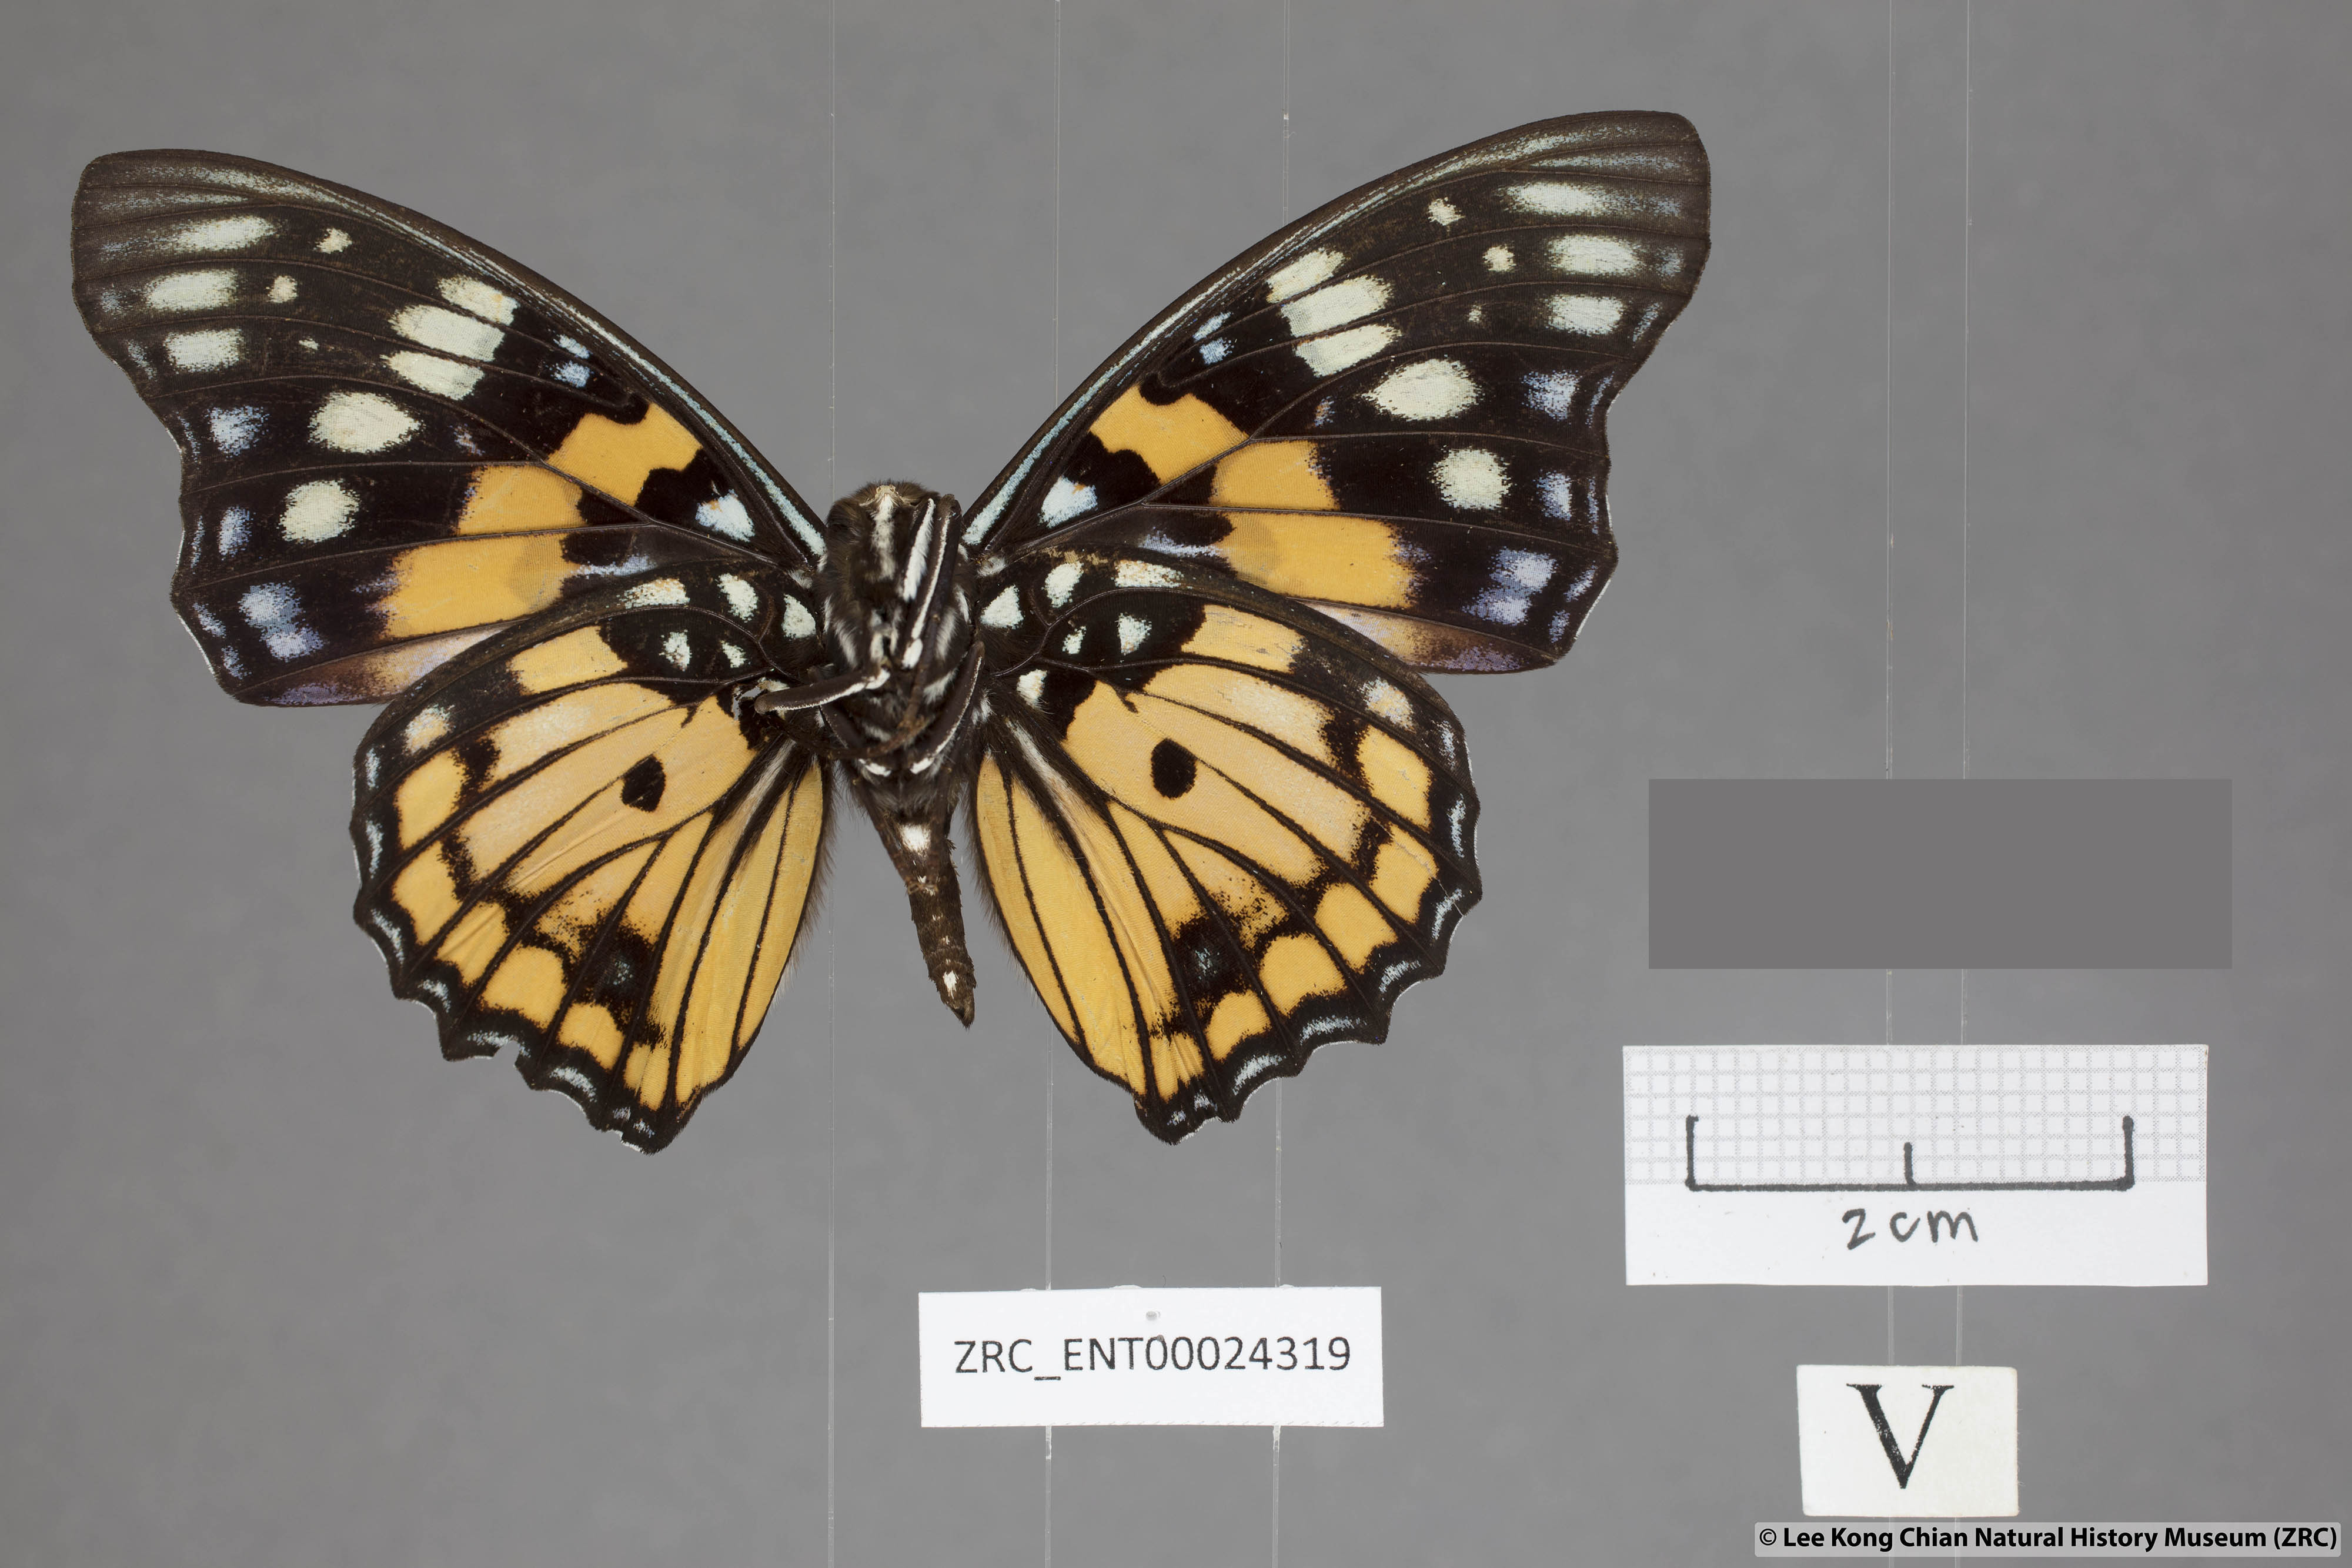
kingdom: Animalia
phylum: Arthropoda
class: Insecta
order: Lepidoptera
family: Nymphalidae
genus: Sephisa
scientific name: Sephisa chandra
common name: Eastern courtier
